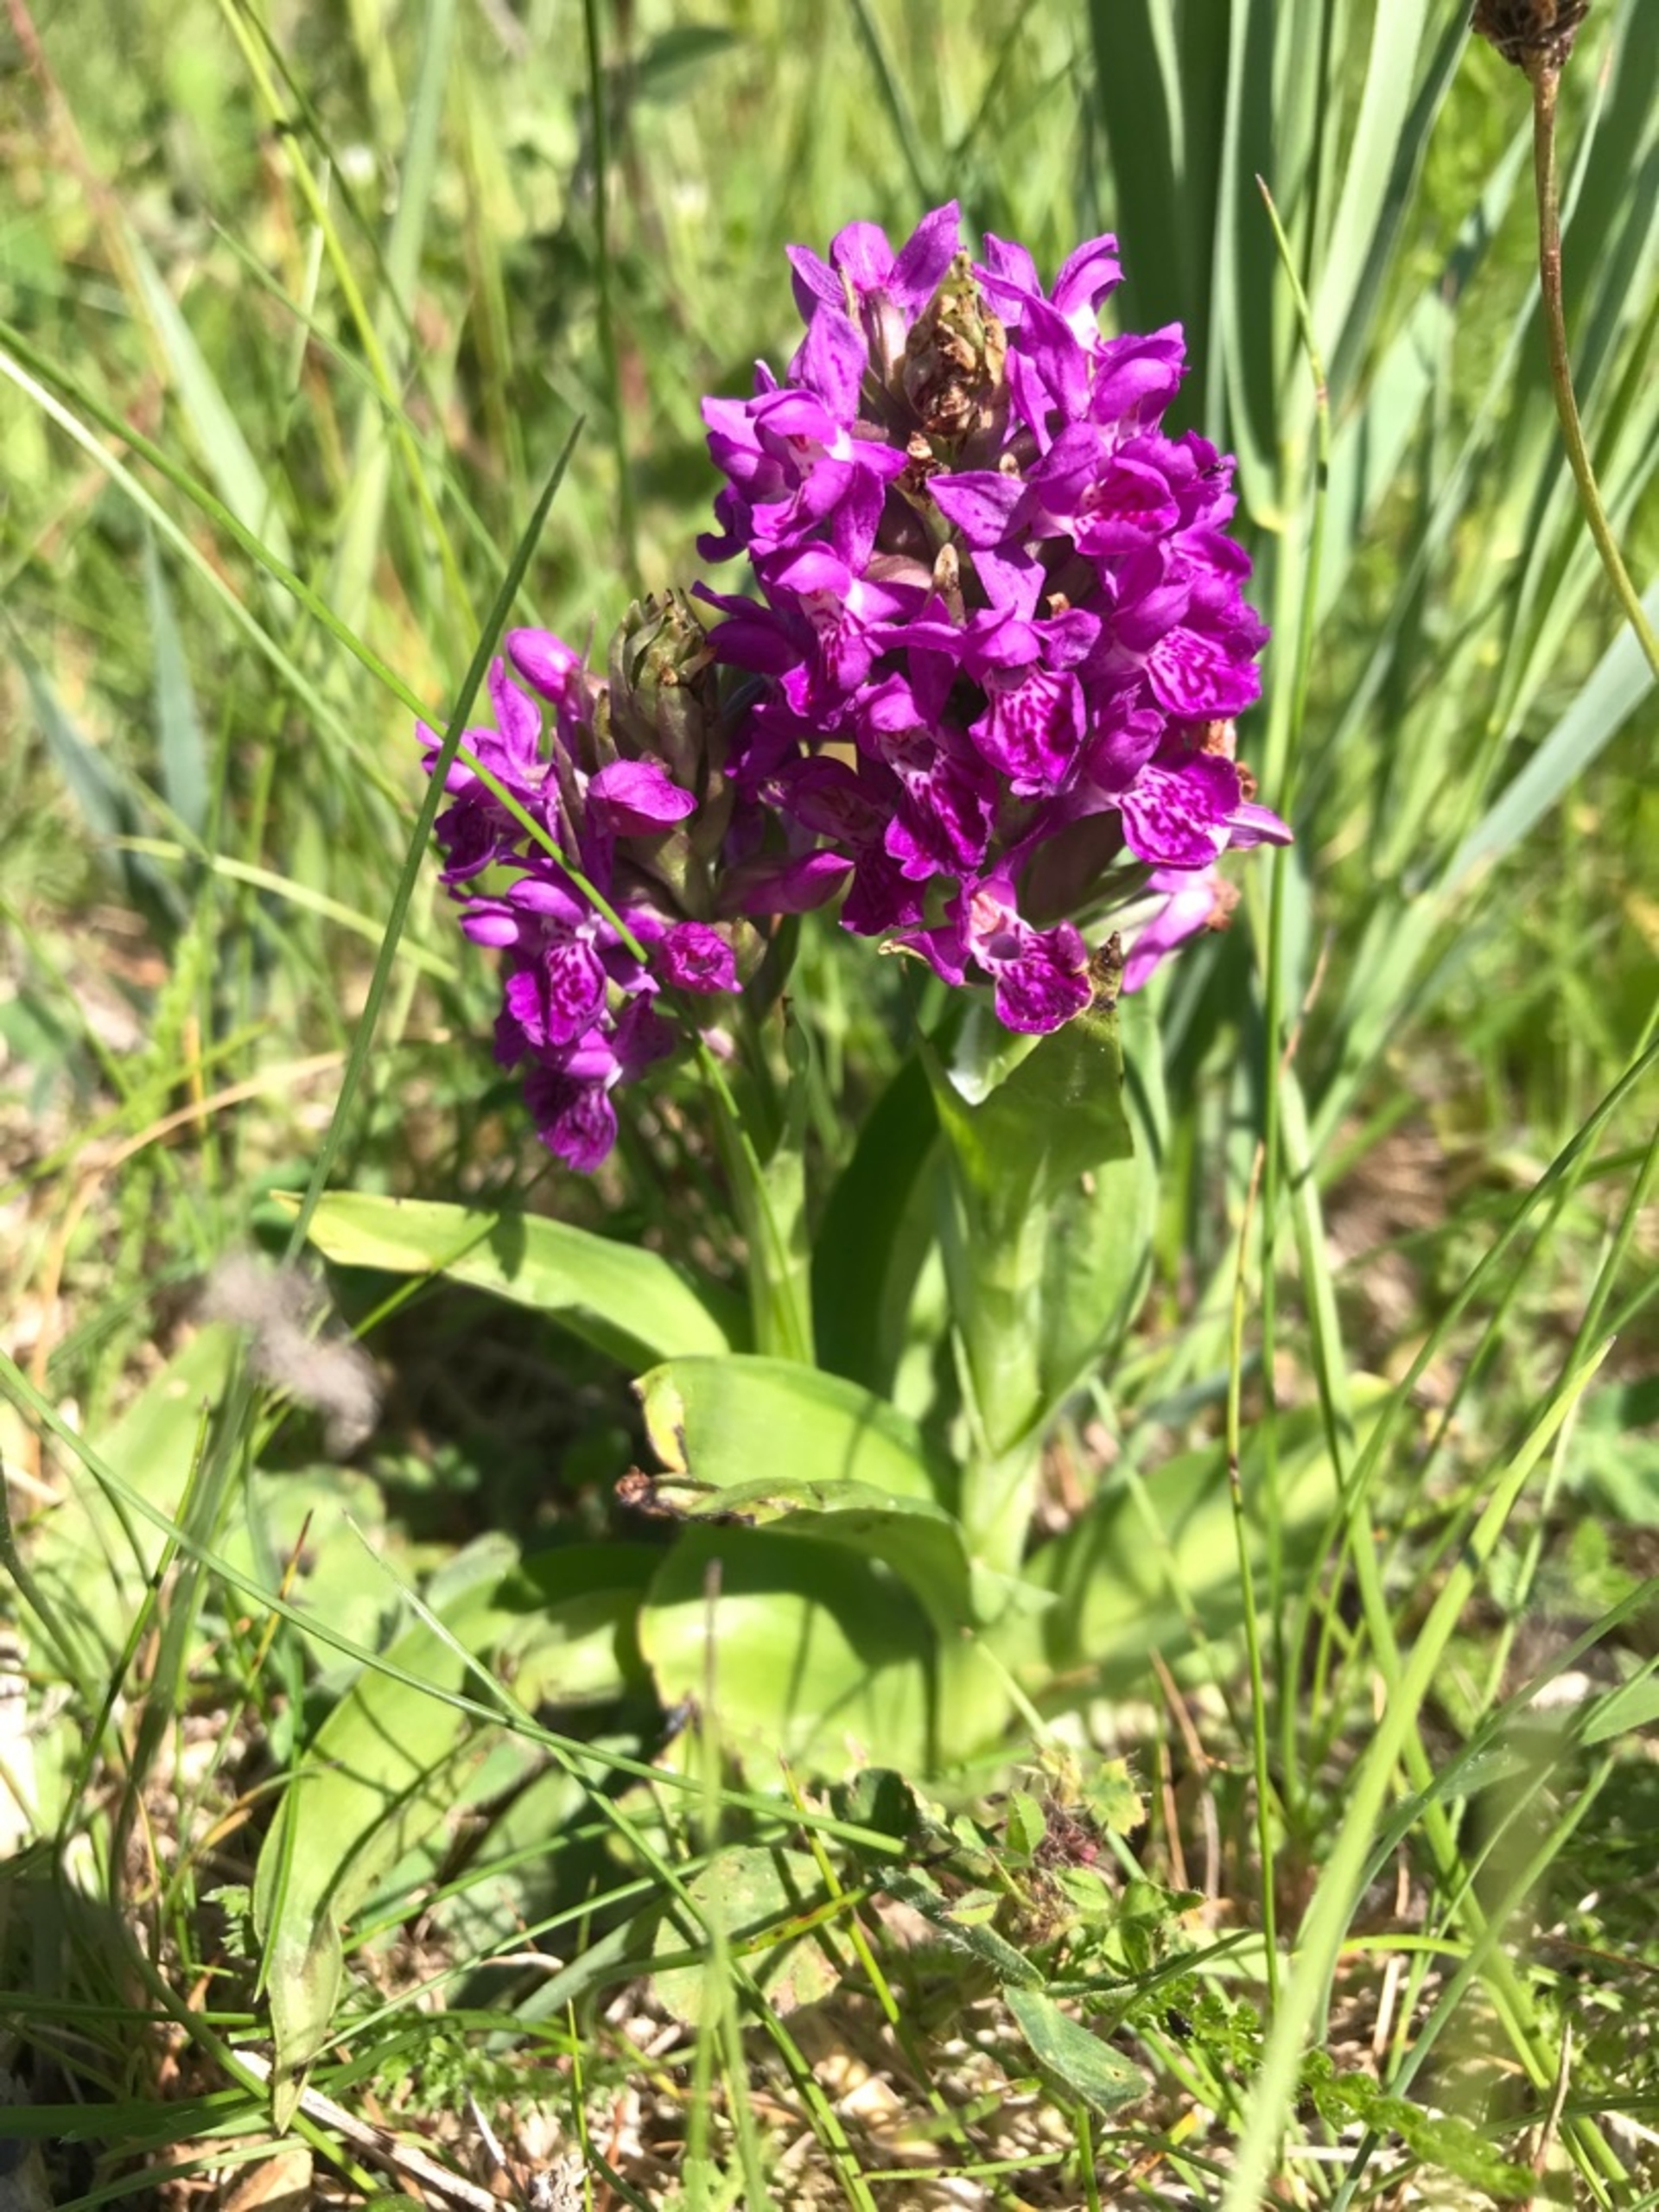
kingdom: Plantae
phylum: Tracheophyta
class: Liliopsida
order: Asparagales
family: Orchidaceae
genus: Dactylorhiza
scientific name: Dactylorhiza majalis
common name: Purpur-gøgeurt
